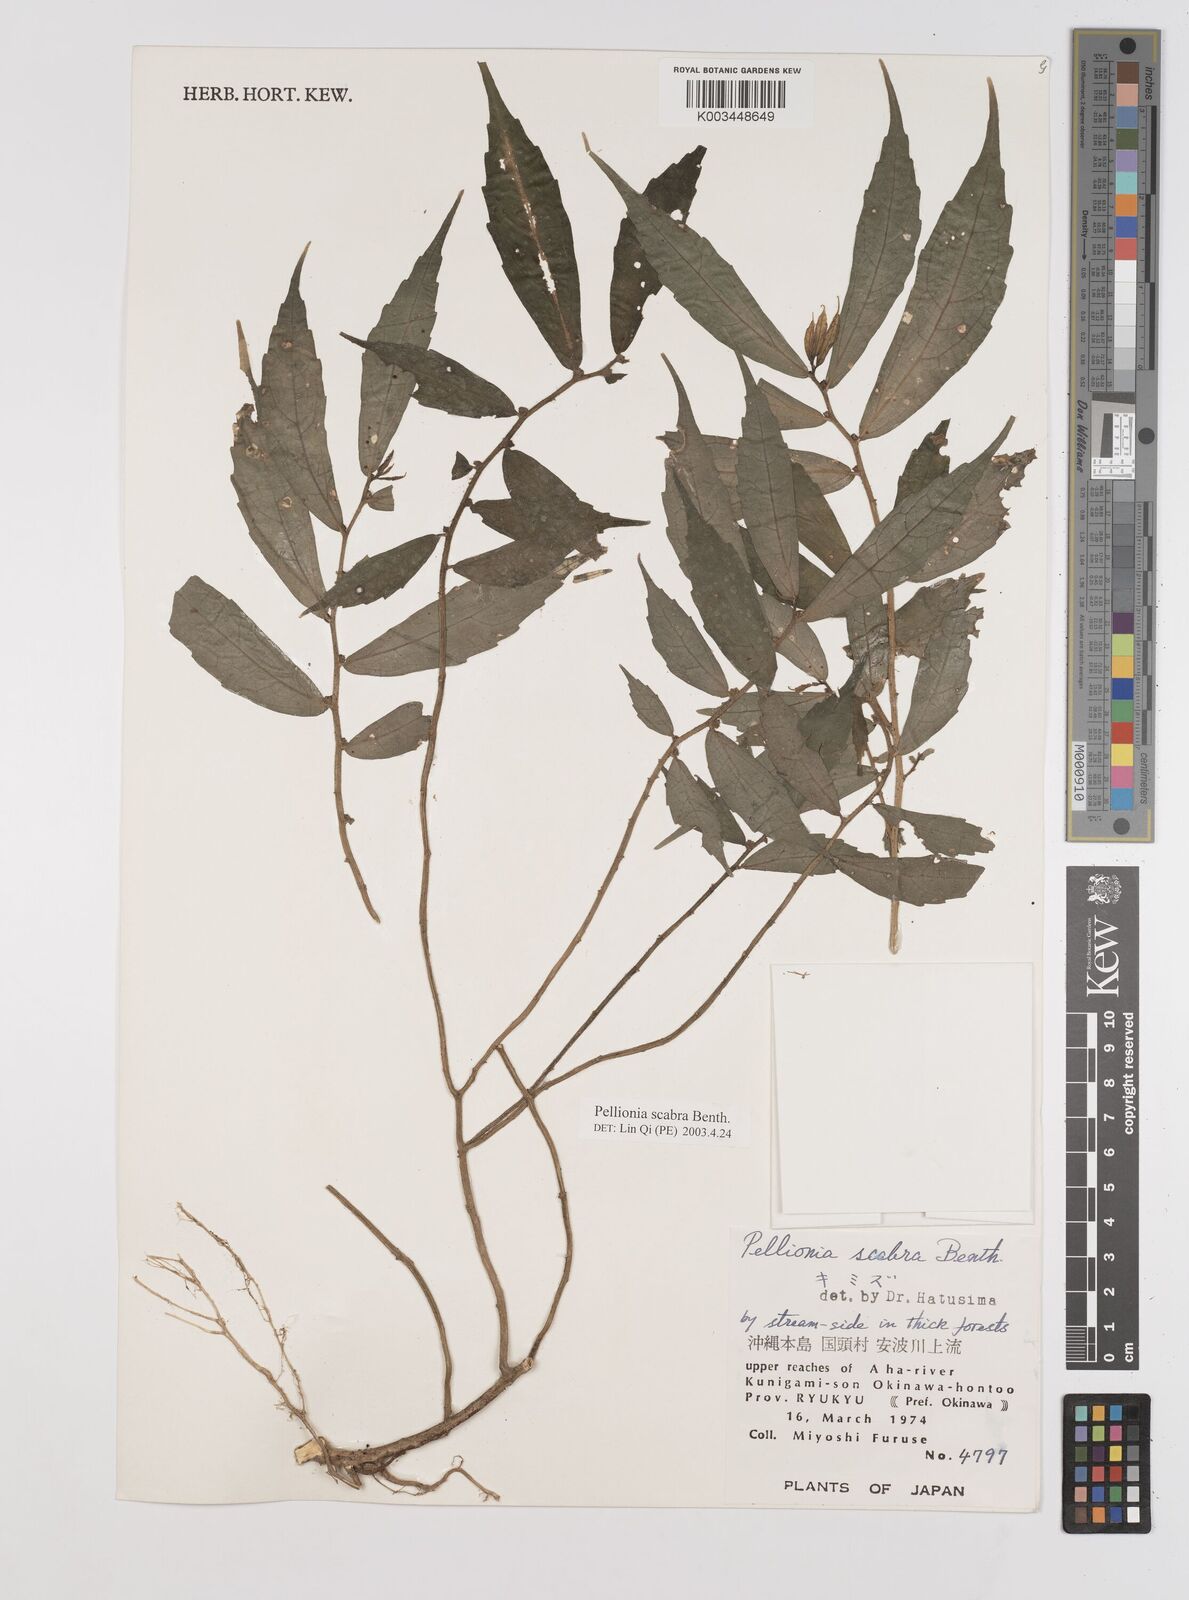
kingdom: Plantae
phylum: Tracheophyta
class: Magnoliopsida
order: Rosales
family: Urticaceae
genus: Elatostema
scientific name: Elatostema
